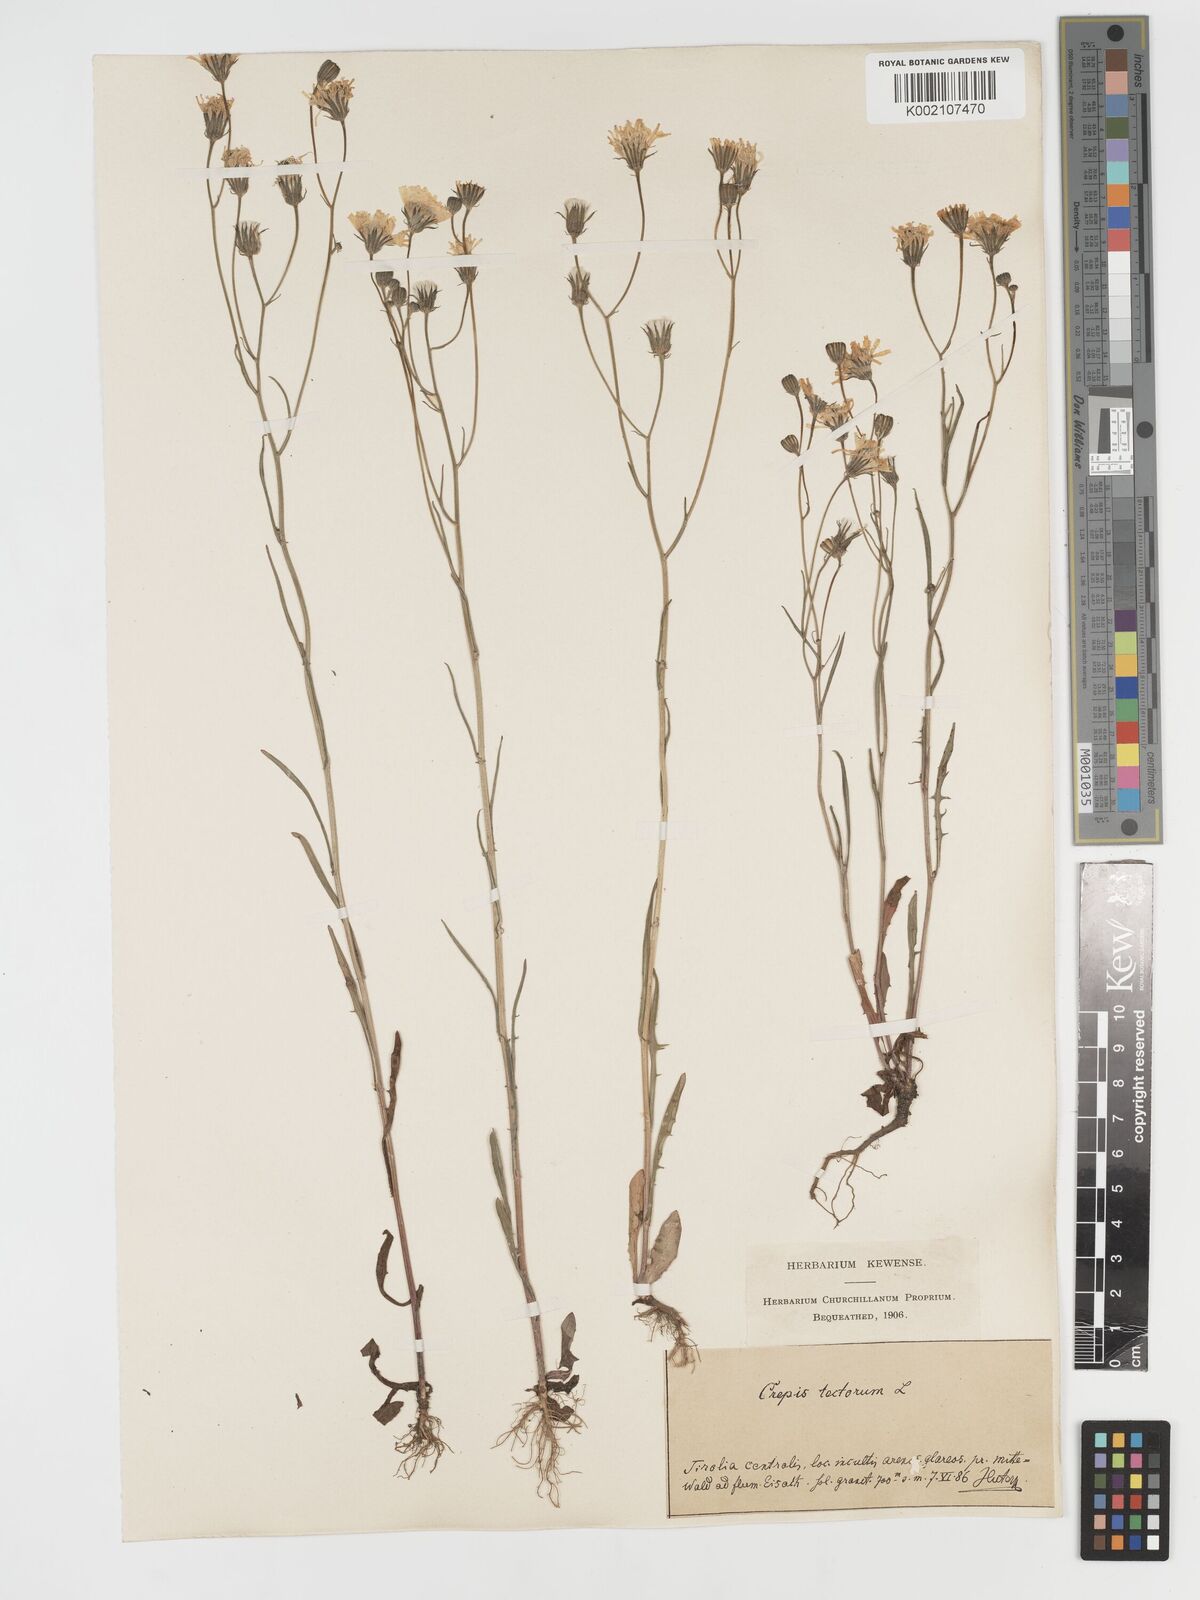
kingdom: Plantae
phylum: Tracheophyta
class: Magnoliopsida
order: Asterales
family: Asteraceae
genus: Crepis
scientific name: Crepis tectorum
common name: Narrow-leaved hawk's-beard
